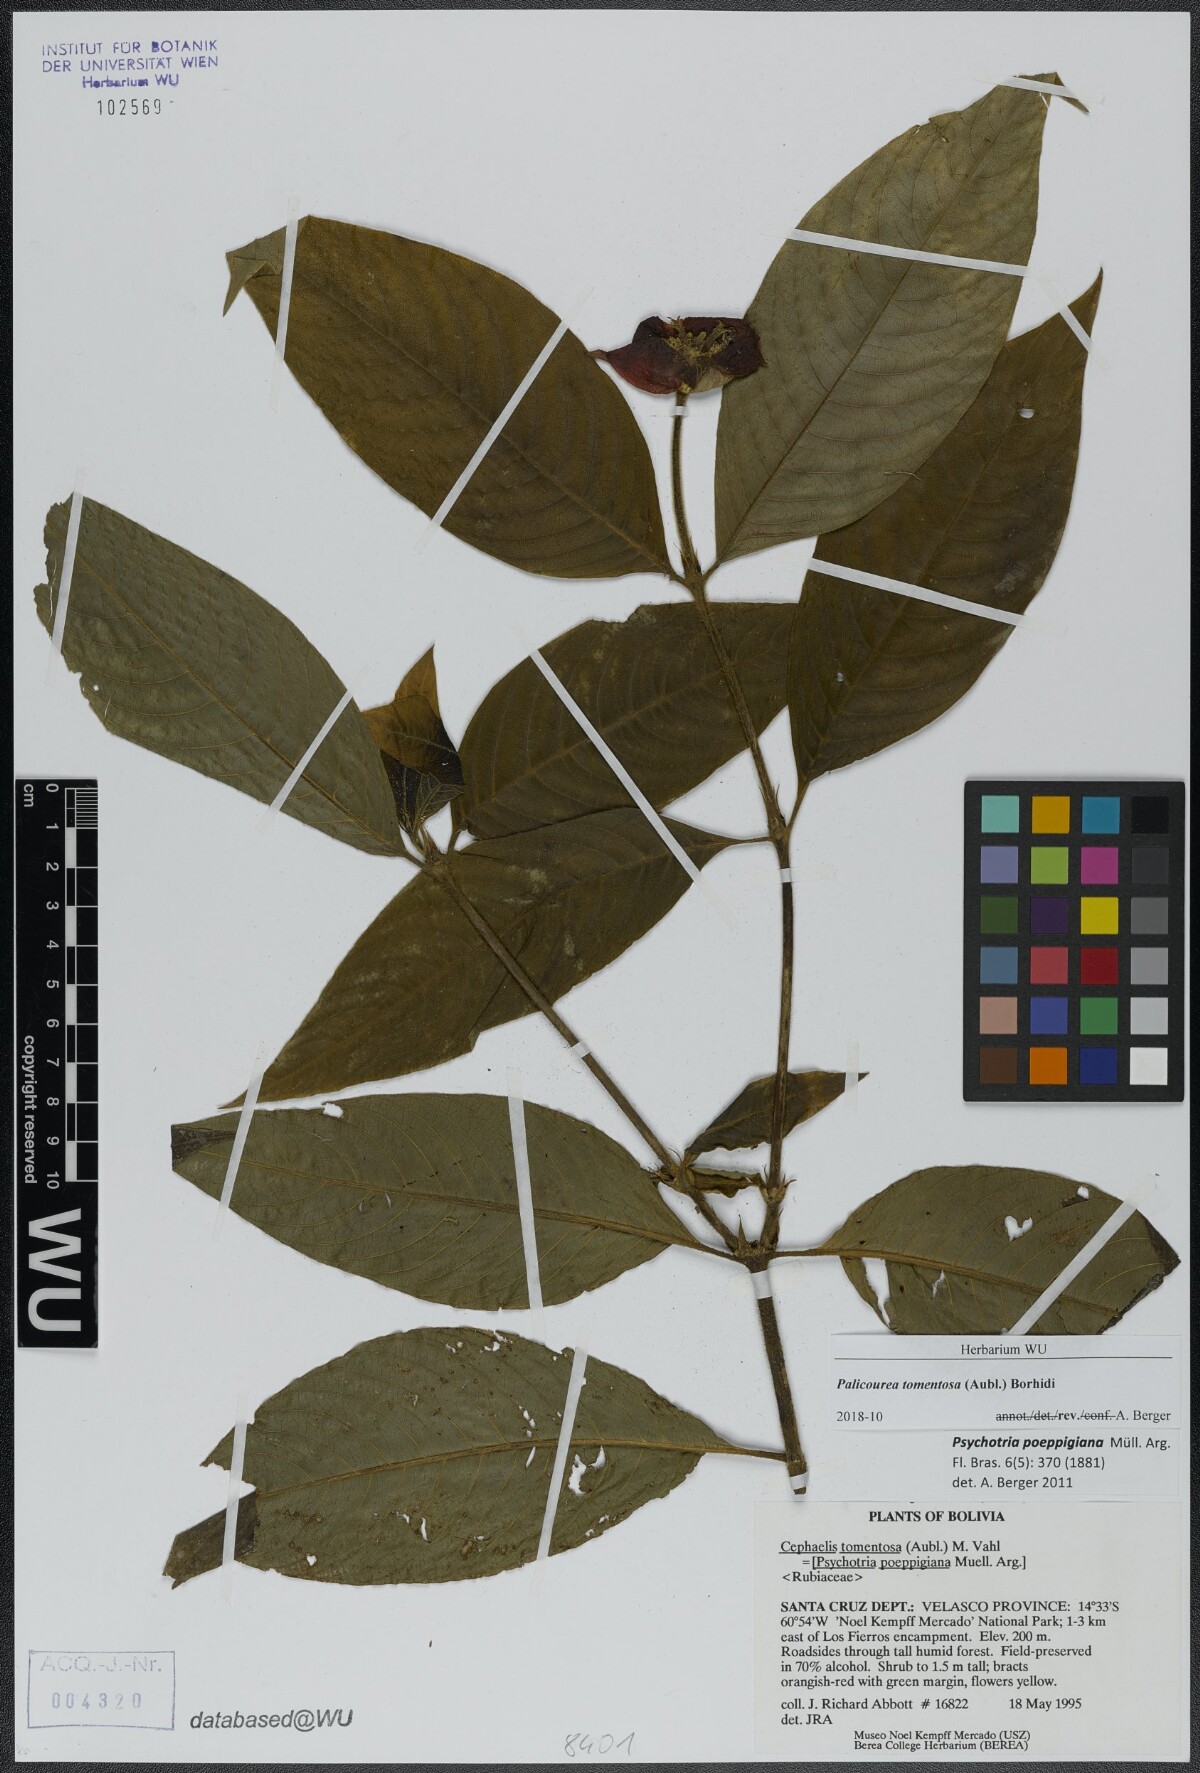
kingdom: Plantae
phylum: Tracheophyta
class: Magnoliopsida
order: Gentianales
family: Rubiaceae
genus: Palicourea
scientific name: Palicourea tomentosa
